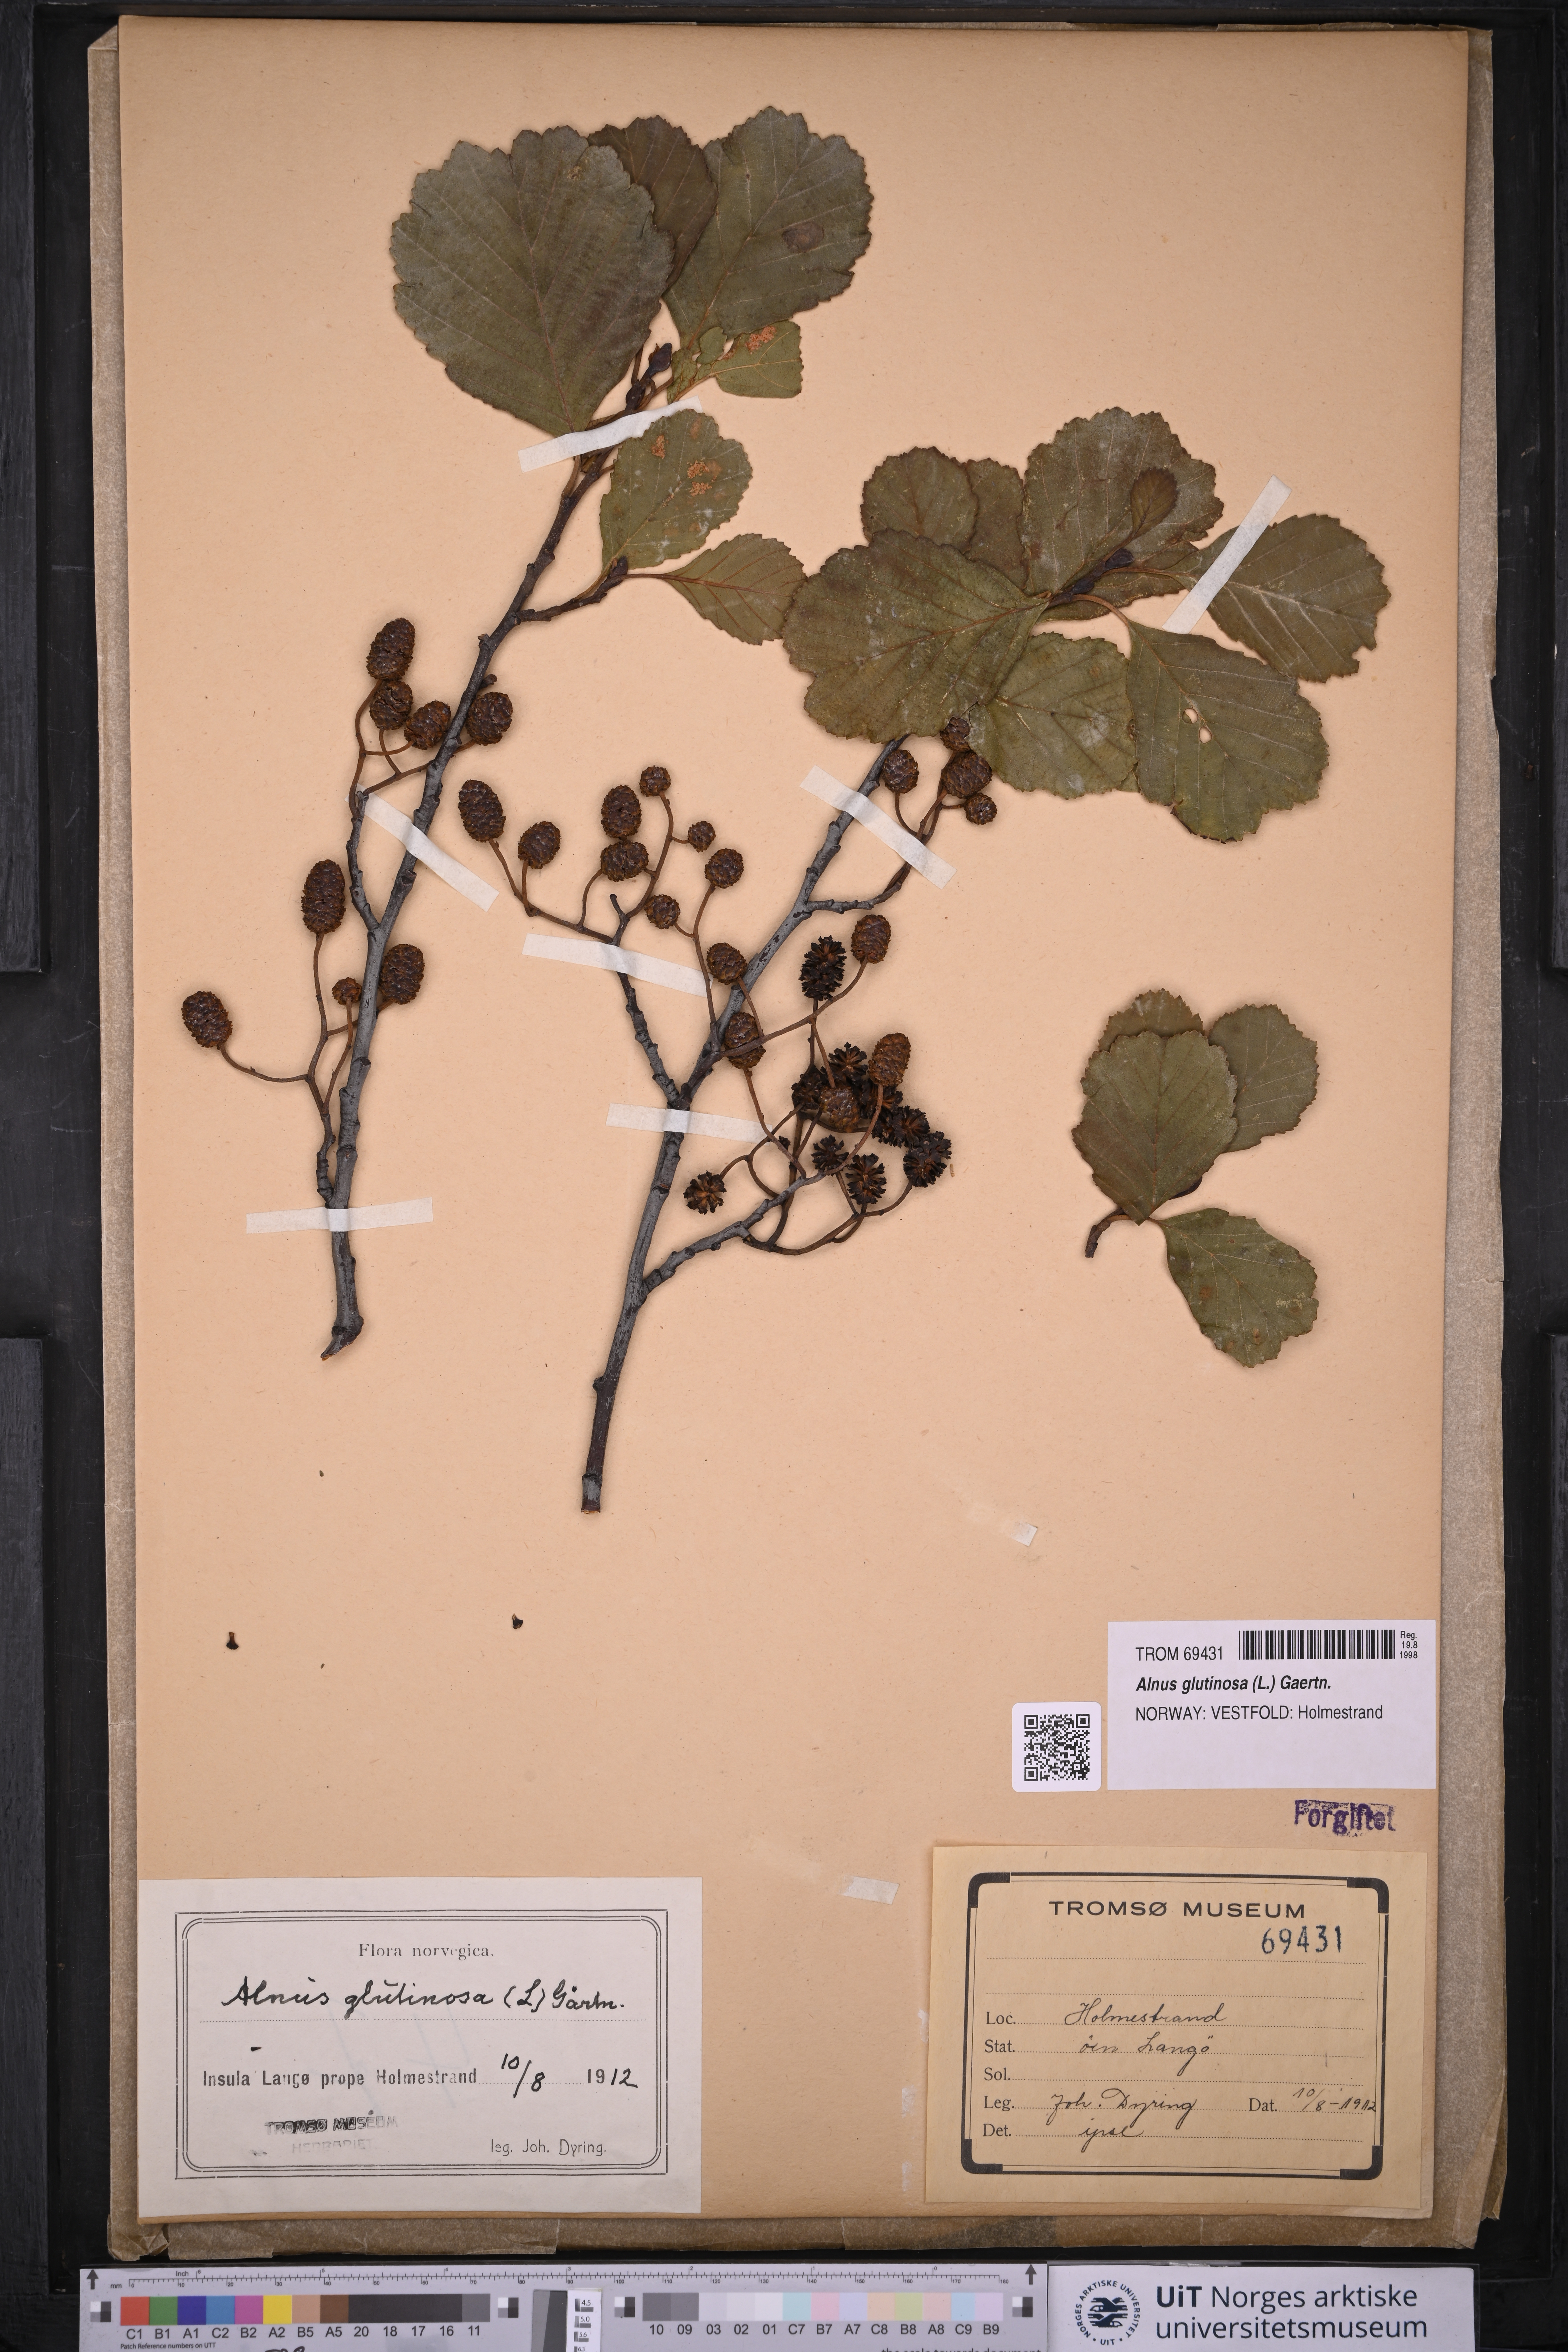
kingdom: Plantae
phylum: Tracheophyta
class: Magnoliopsida
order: Fagales
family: Betulaceae
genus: Alnus
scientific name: Alnus glutinosa
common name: Black alder
